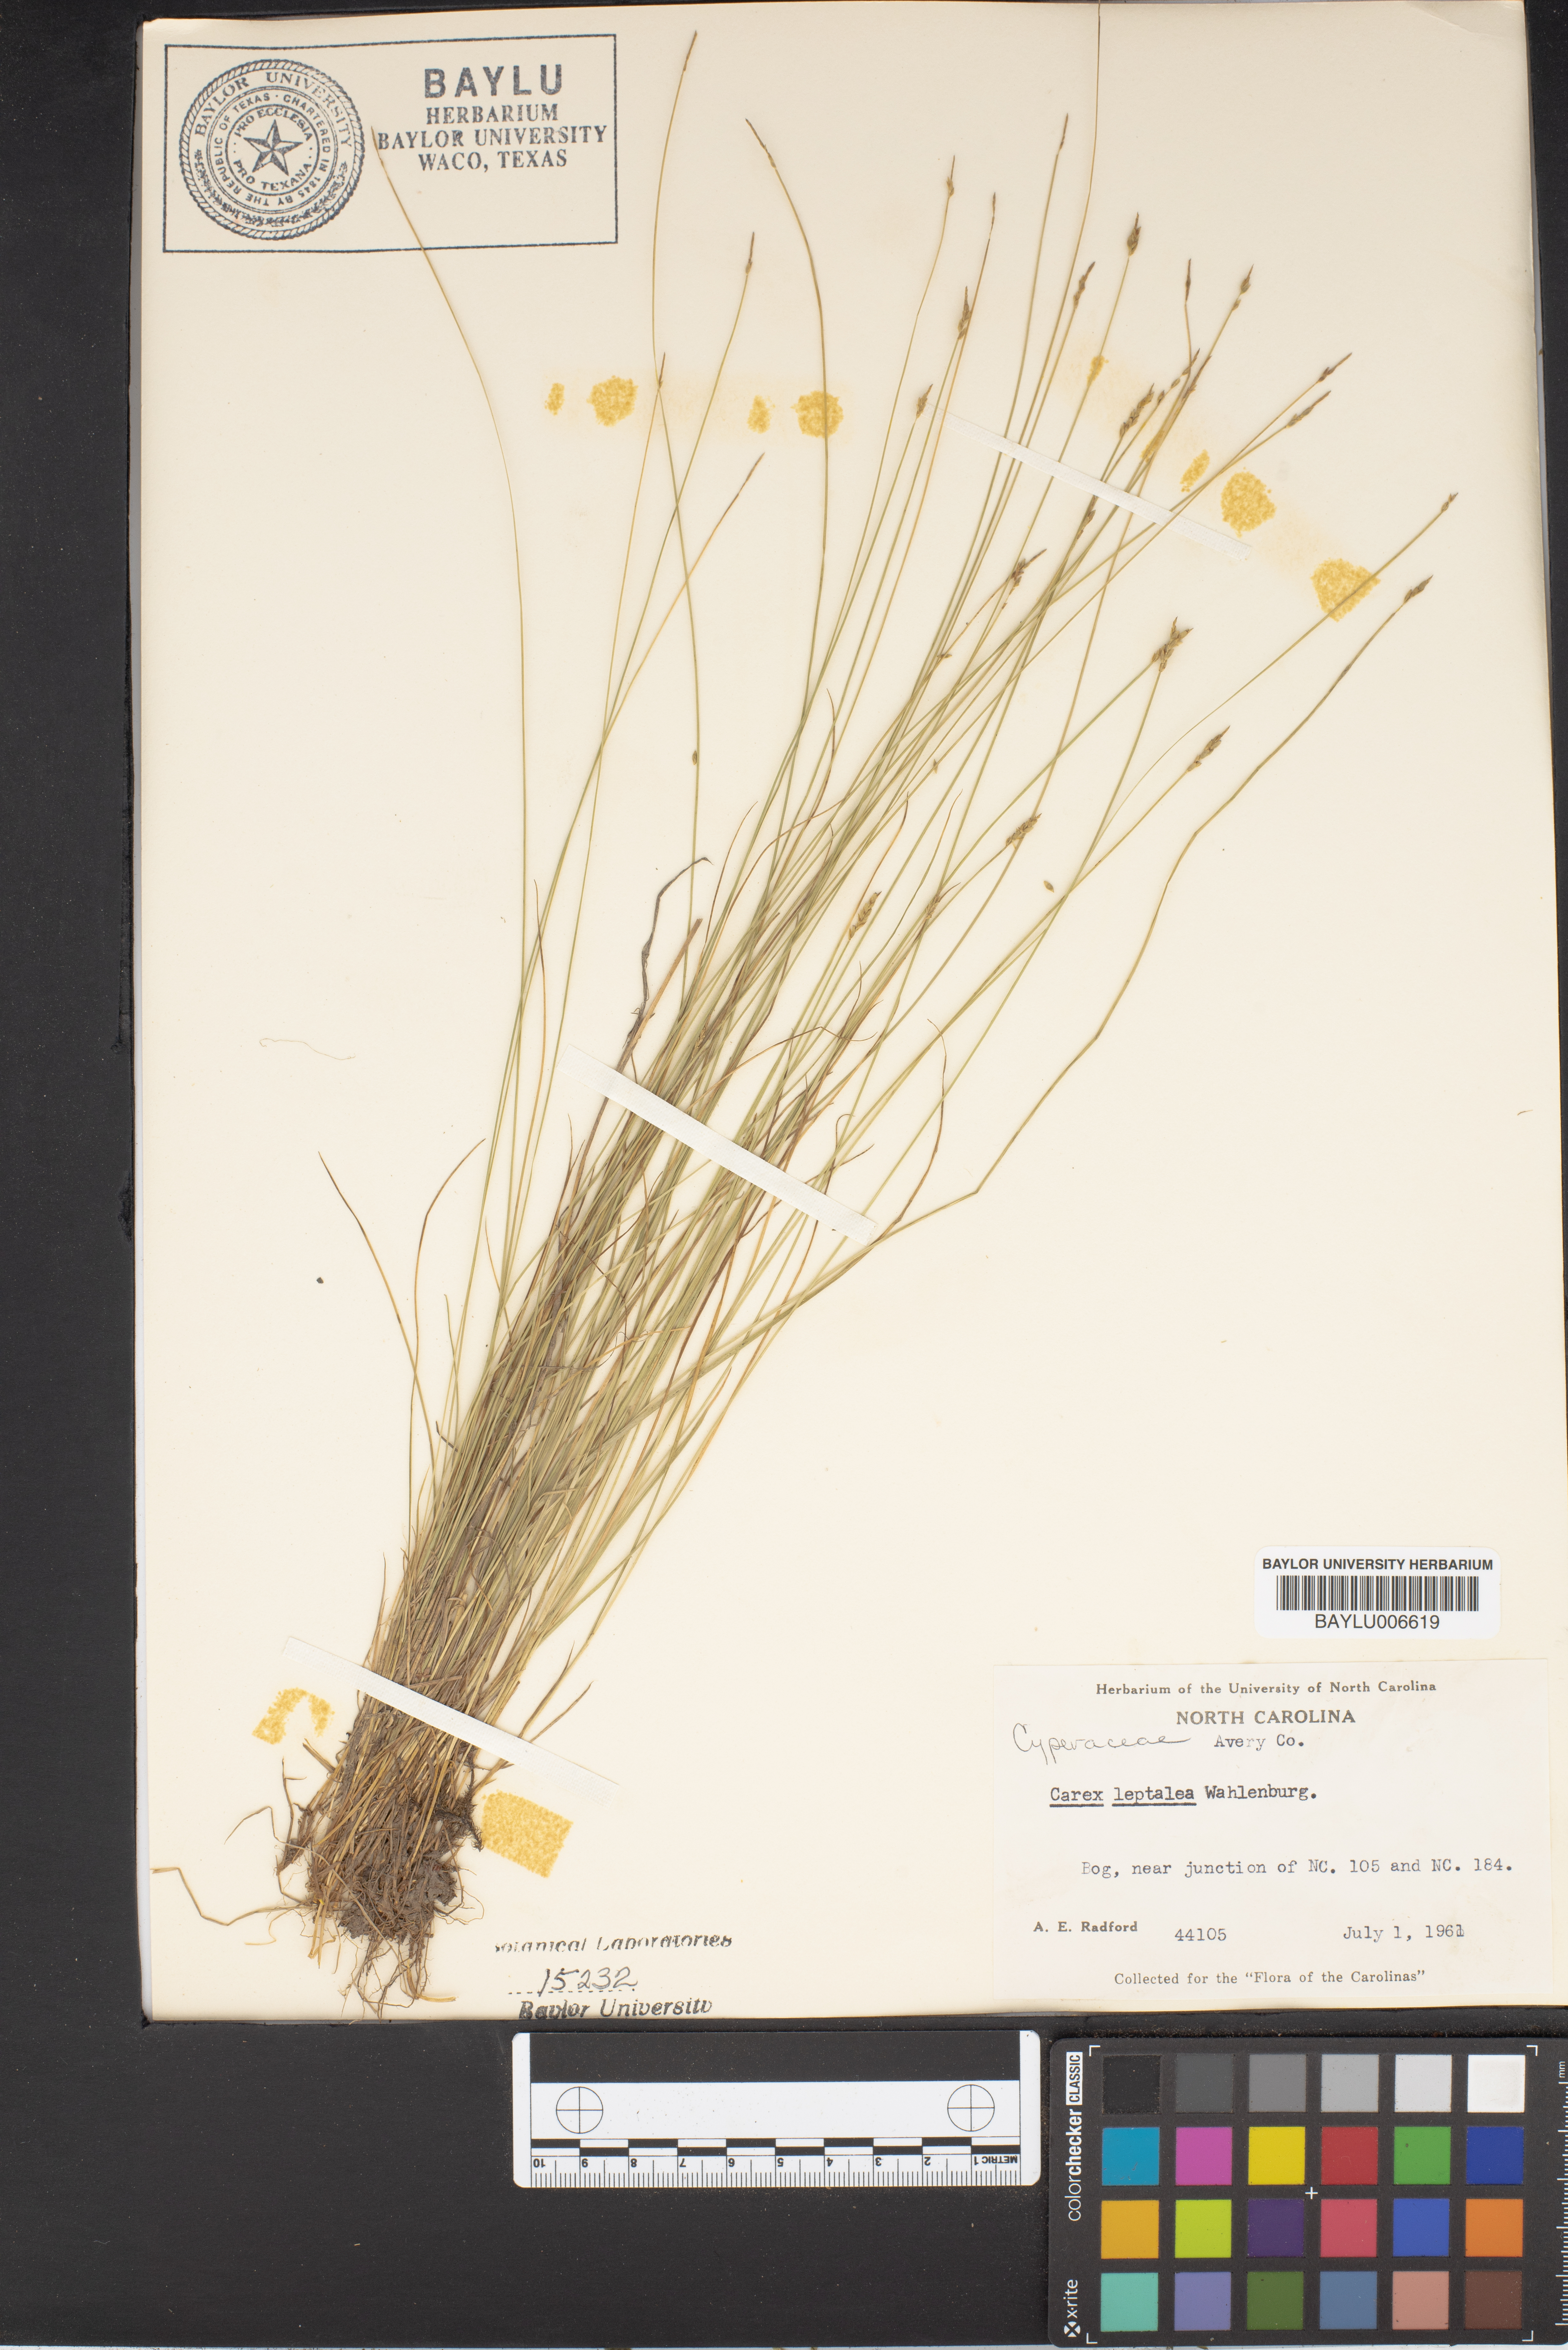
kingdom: Plantae
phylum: Tracheophyta
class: Liliopsida
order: Poales
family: Cyperaceae
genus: Carex
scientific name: Carex leptalea
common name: Bristly-stalked sedge
